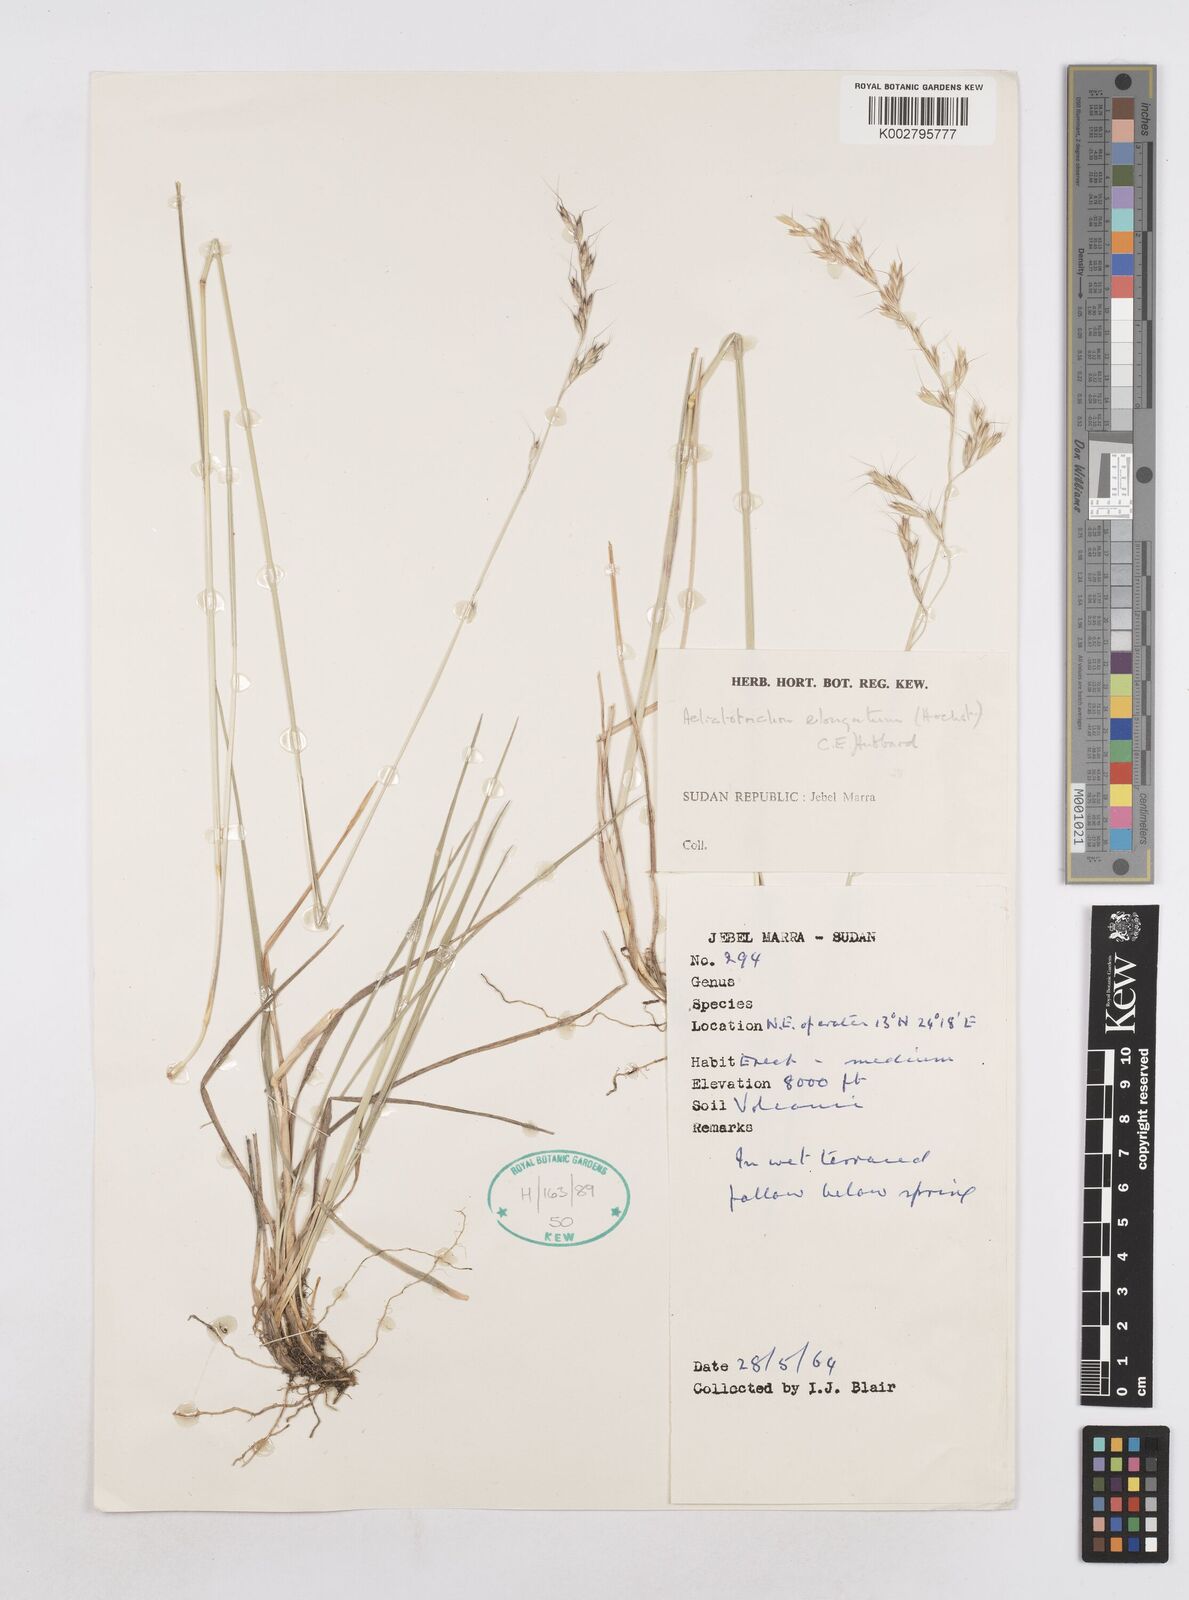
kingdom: Plantae
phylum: Tracheophyta
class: Liliopsida
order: Poales
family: Poaceae
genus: Trisetopsis
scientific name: Trisetopsis elongata
